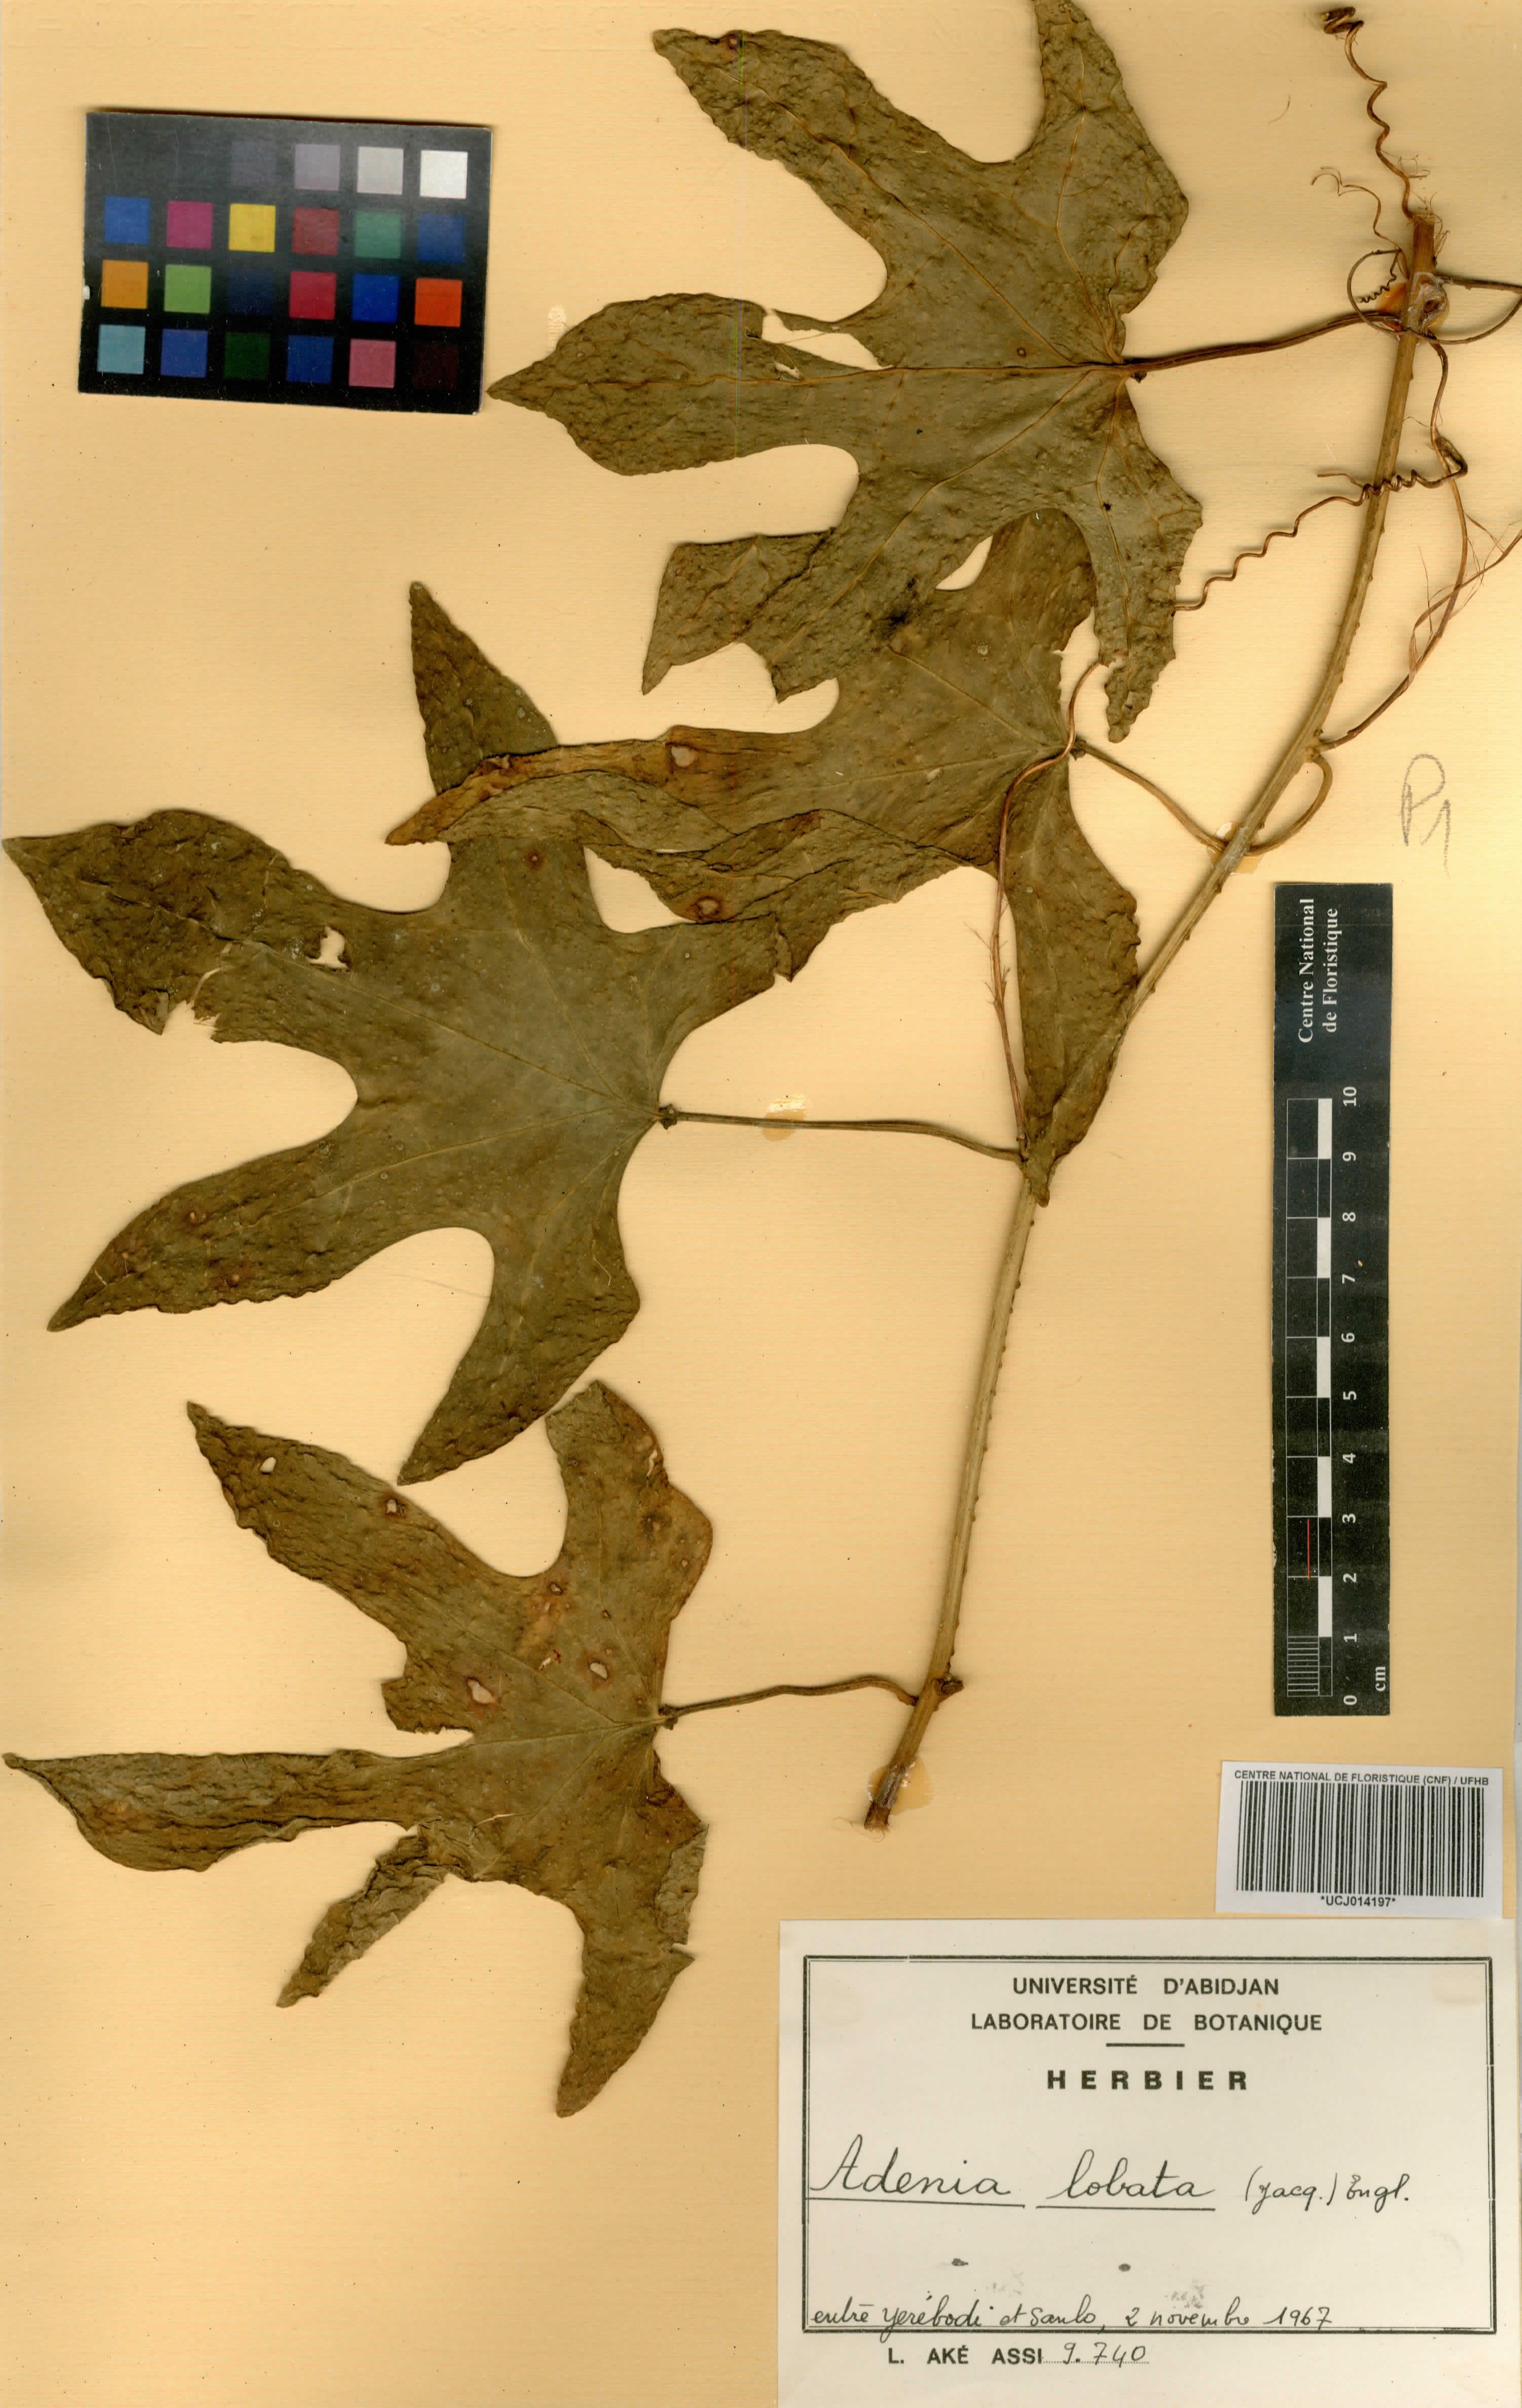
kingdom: Plantae
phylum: Tracheophyta
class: Magnoliopsida
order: Malpighiales
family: Passifloraceae
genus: Adenia
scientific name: Adenia lobata
